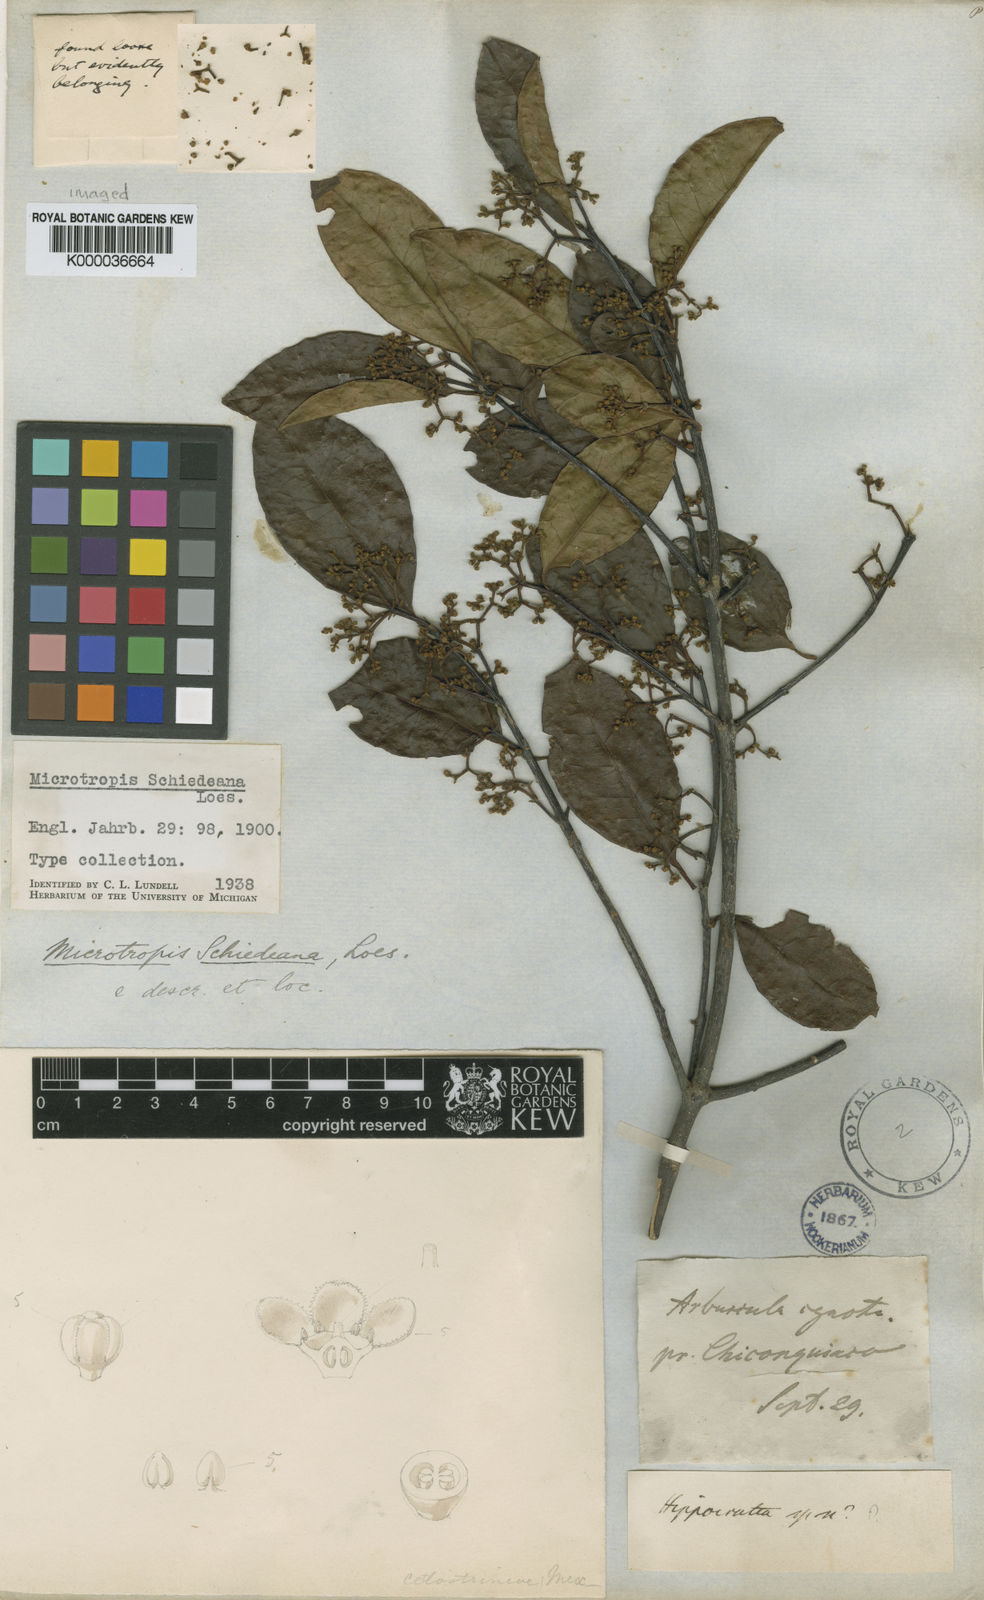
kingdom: Plantae
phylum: Tracheophyta
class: Magnoliopsida
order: Celastrales
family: Celastraceae
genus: Quetzalia
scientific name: Quetzalia schiedeana
